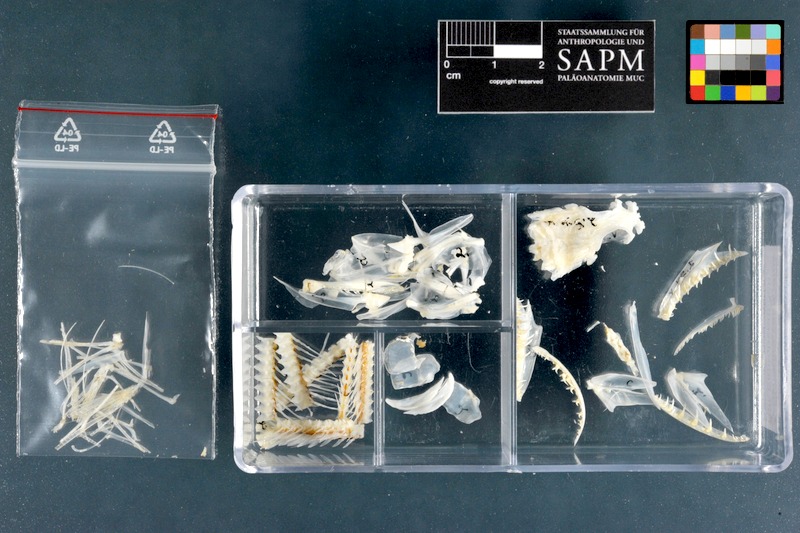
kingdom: Animalia
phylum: Chordata
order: Aulopiformes
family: Synodontidae
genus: Synodus
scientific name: Synodus variegatus
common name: Variegated lizardfish
